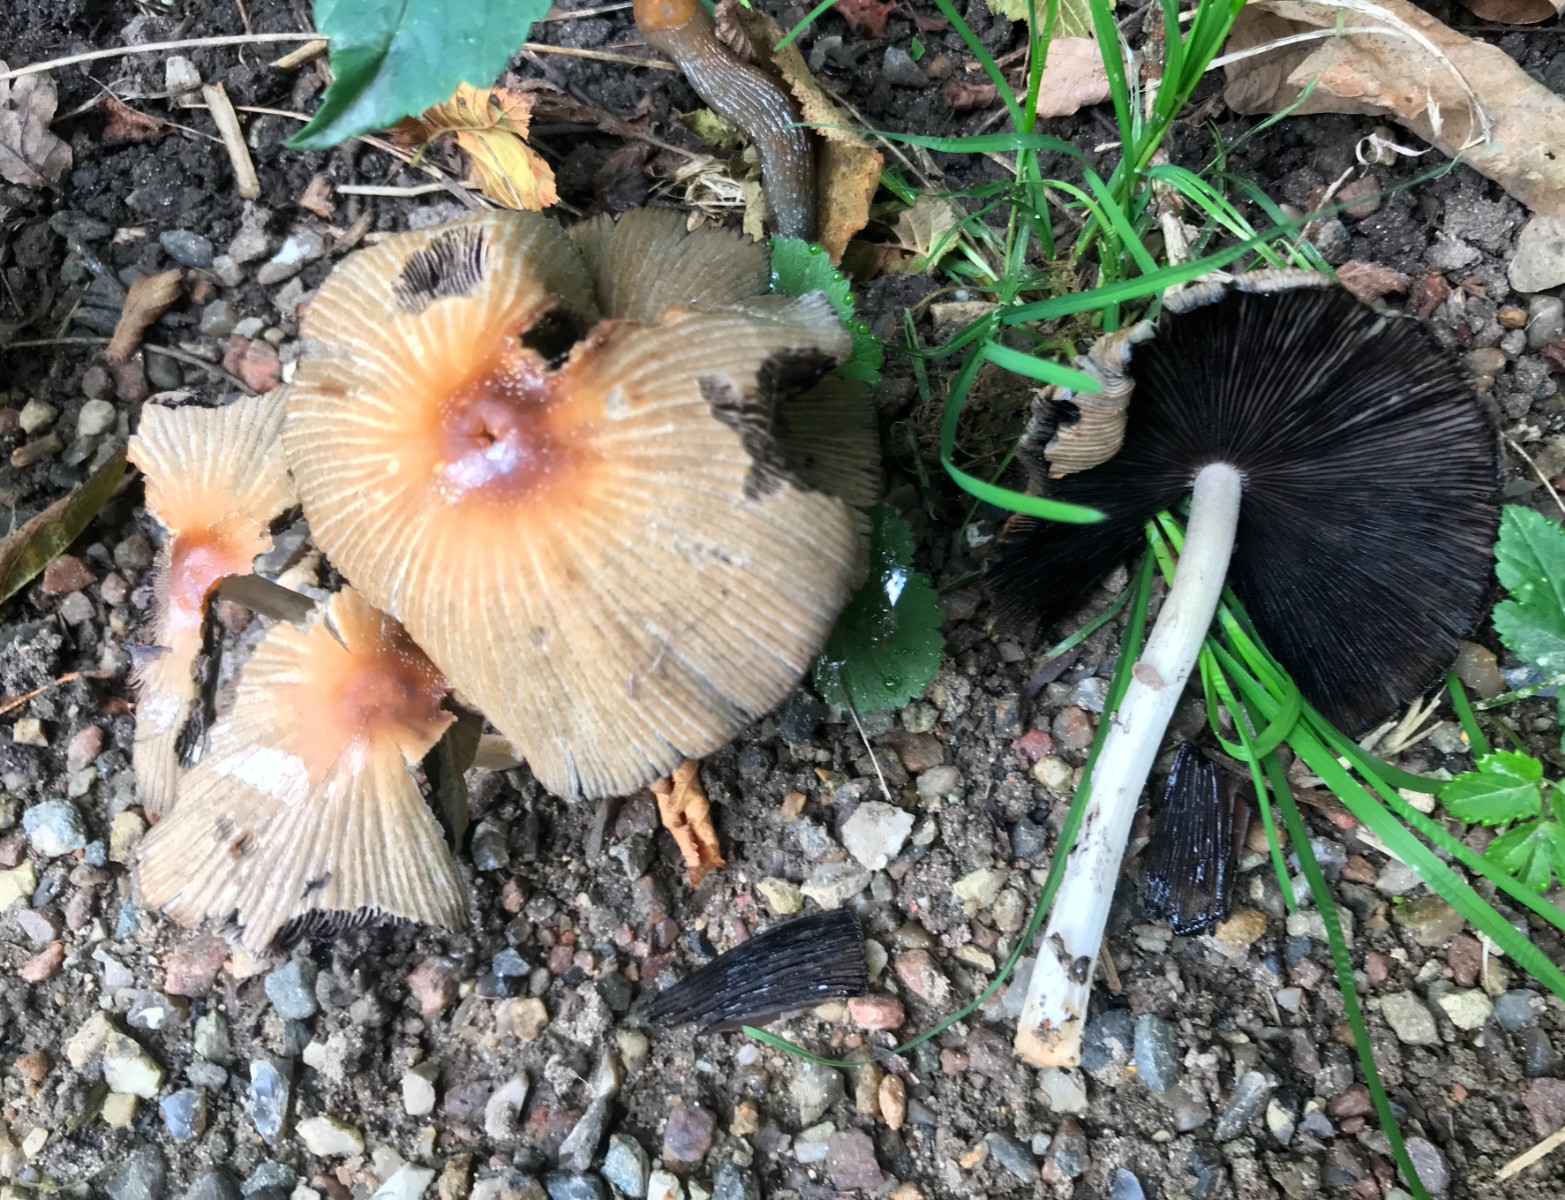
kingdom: Fungi
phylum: Basidiomycota
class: Agaricomycetes
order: Agaricales
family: Psathyrellaceae
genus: Coprinellus
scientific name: Coprinellus
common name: blækhat
